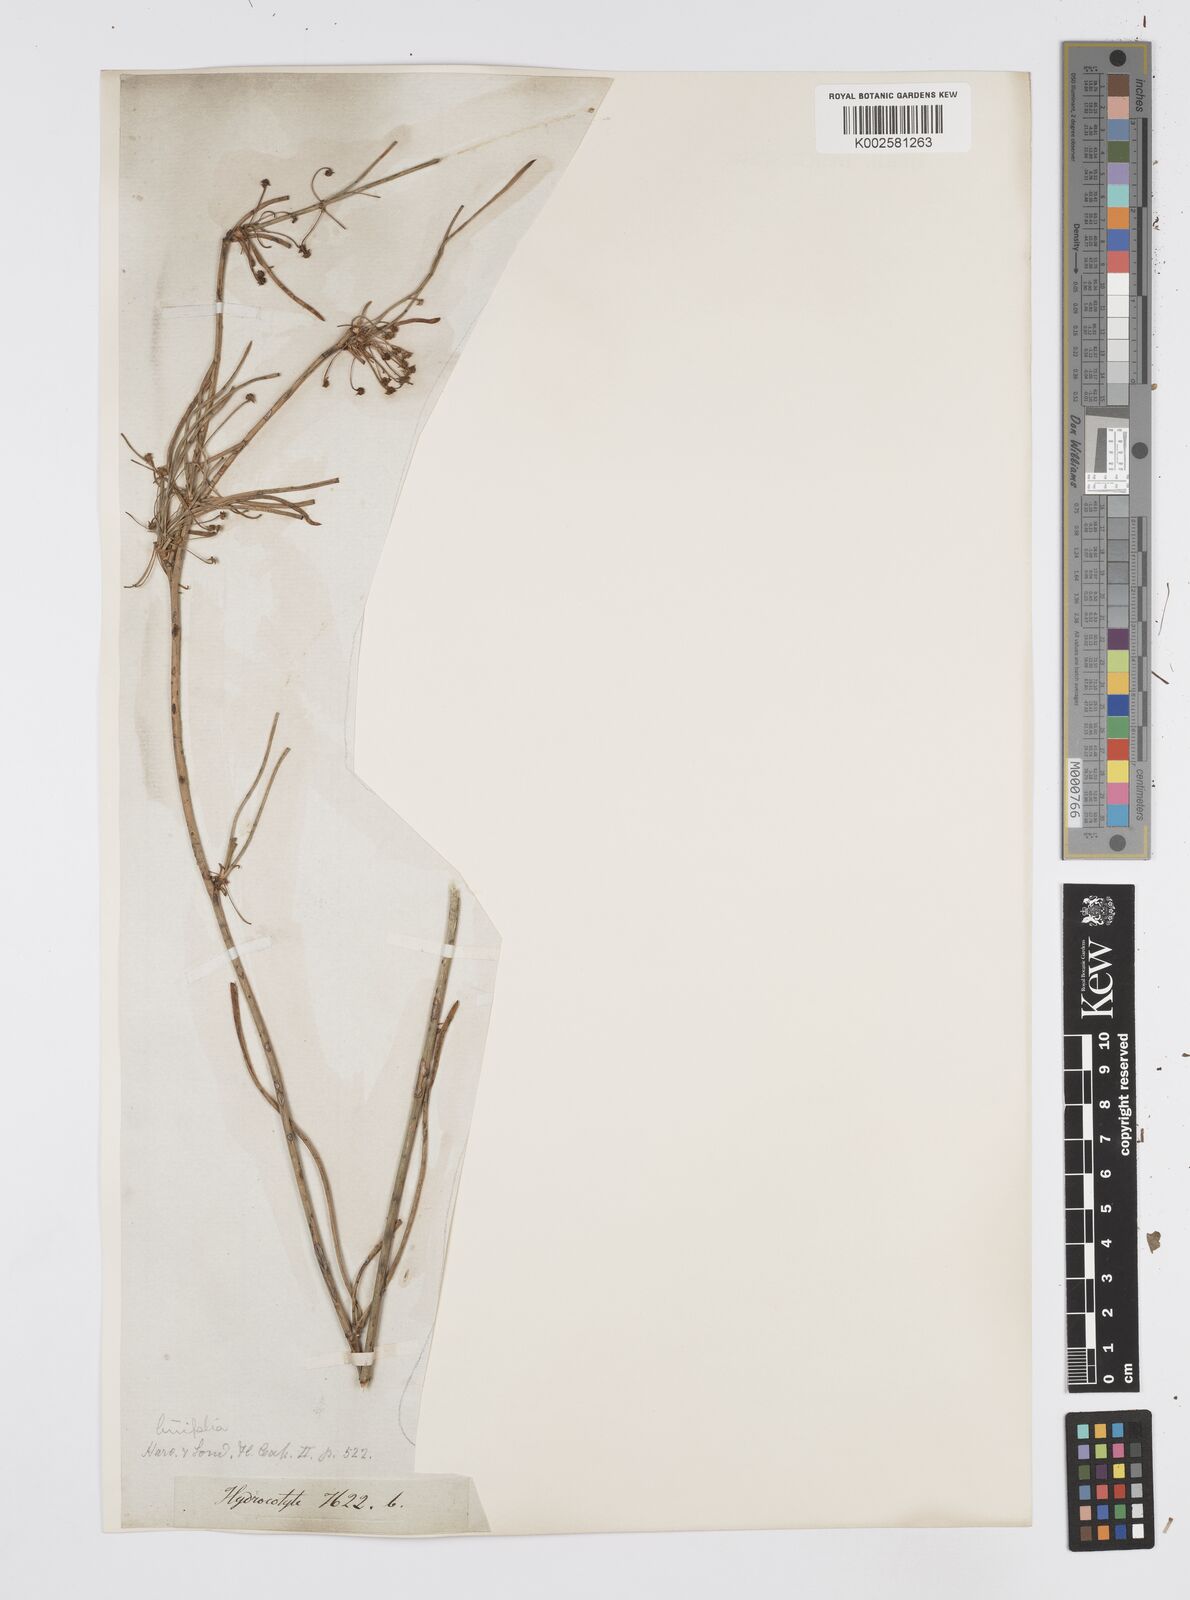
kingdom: Plantae
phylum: Tracheophyta
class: Magnoliopsida
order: Apiales
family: Apiaceae
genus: Centella
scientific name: Centella linifolia
